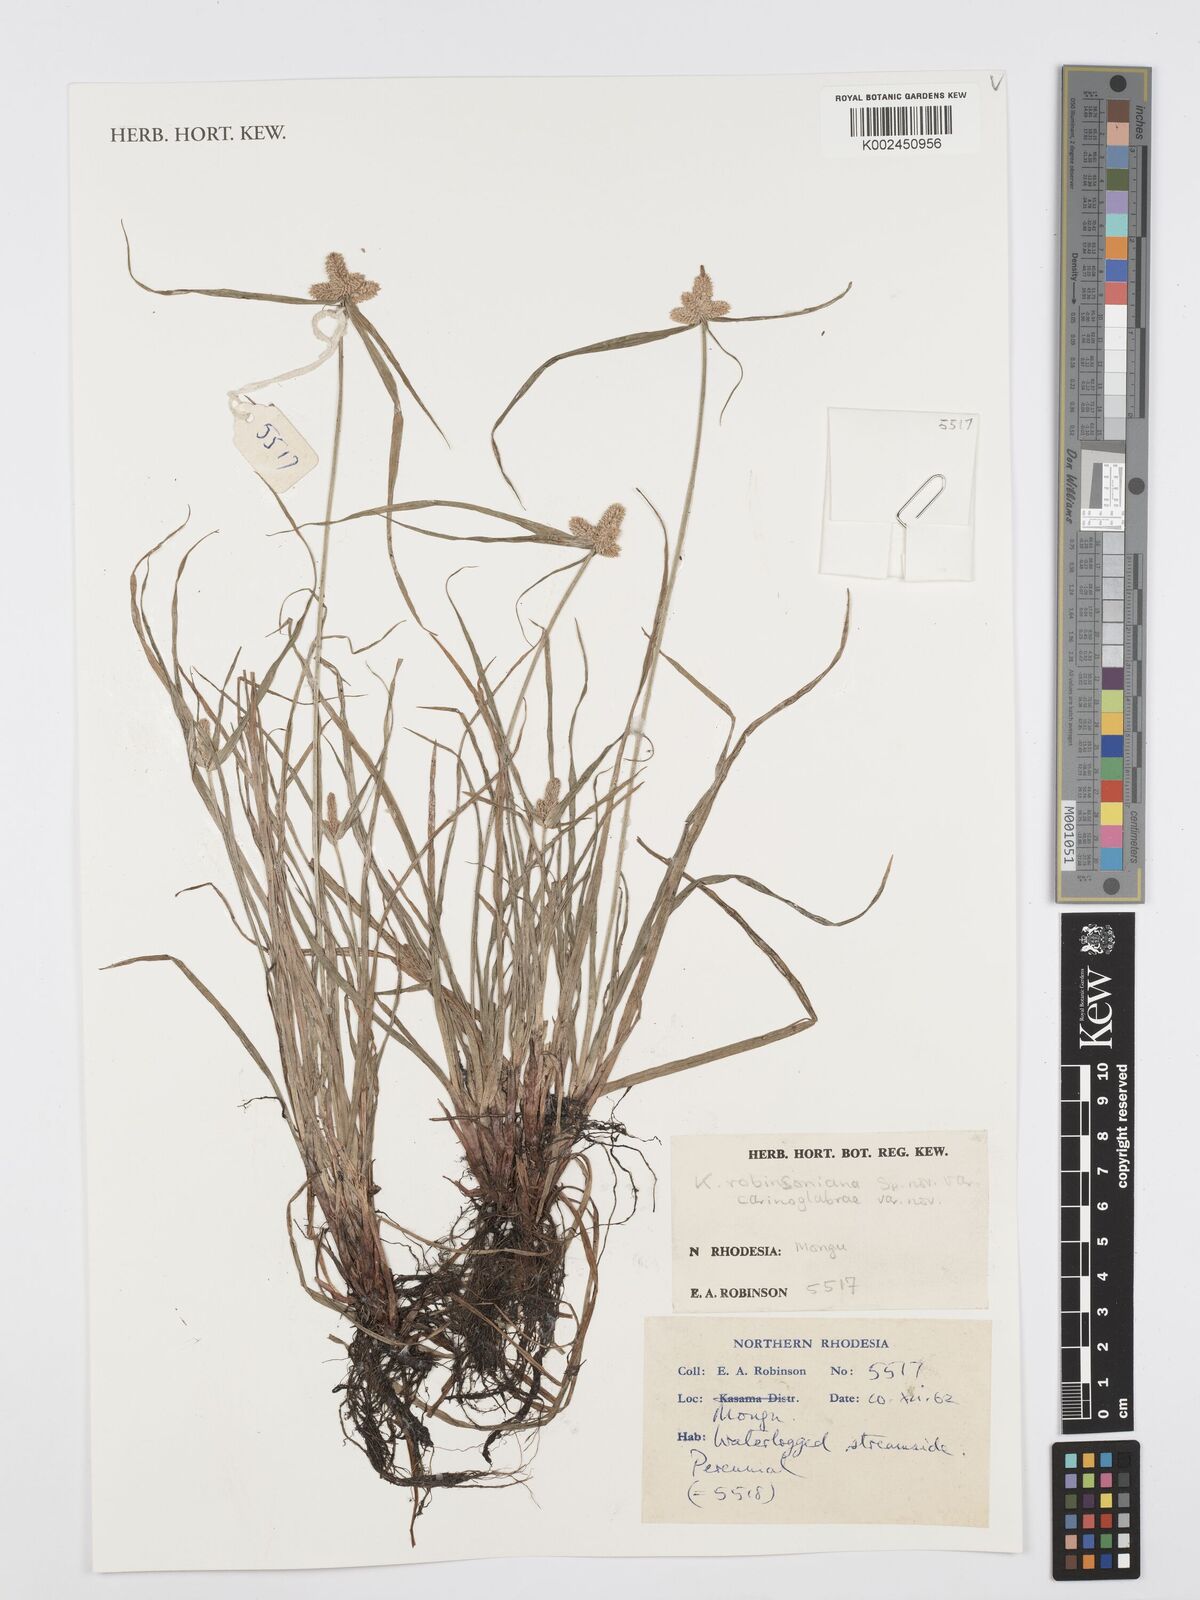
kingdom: Plantae
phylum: Tracheophyta
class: Liliopsida
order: Poales
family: Cyperaceae
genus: Cyperus
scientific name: Cyperus robinsonianus
